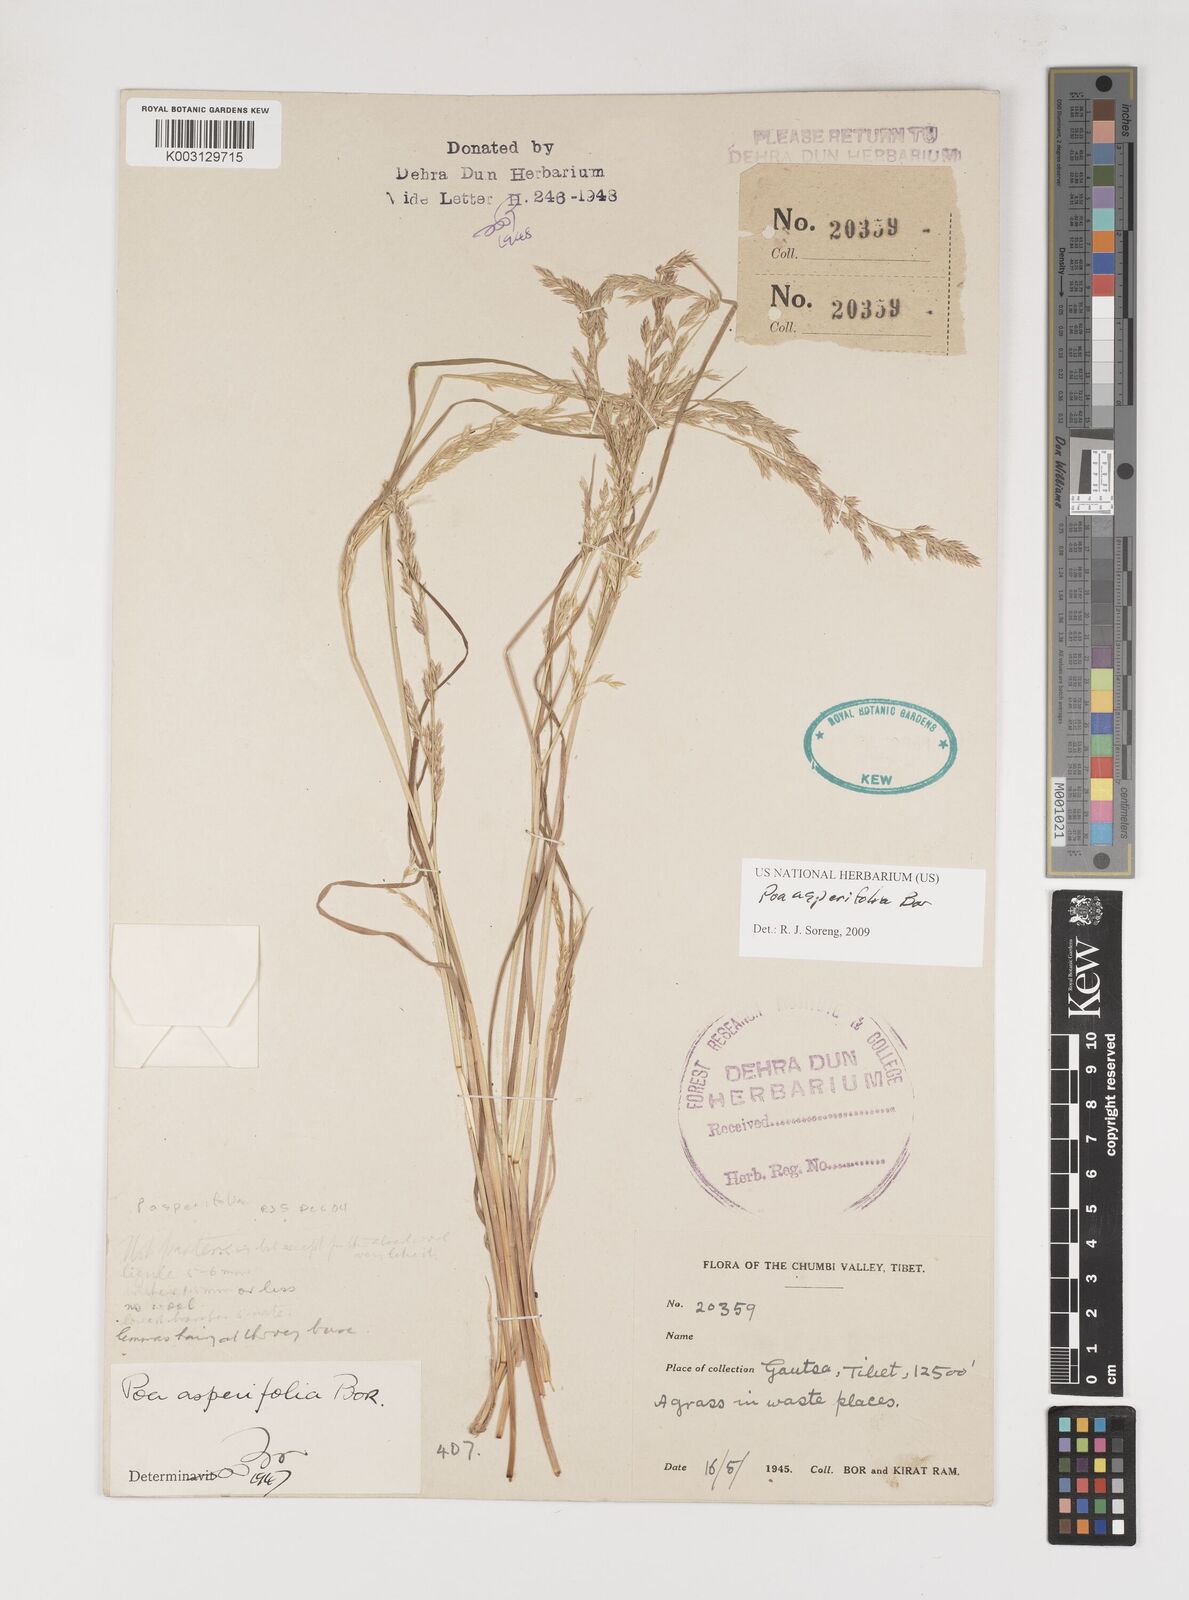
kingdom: Plantae
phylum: Tracheophyta
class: Liliopsida
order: Poales
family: Poaceae
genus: Poa
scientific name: Poa asperifolia
